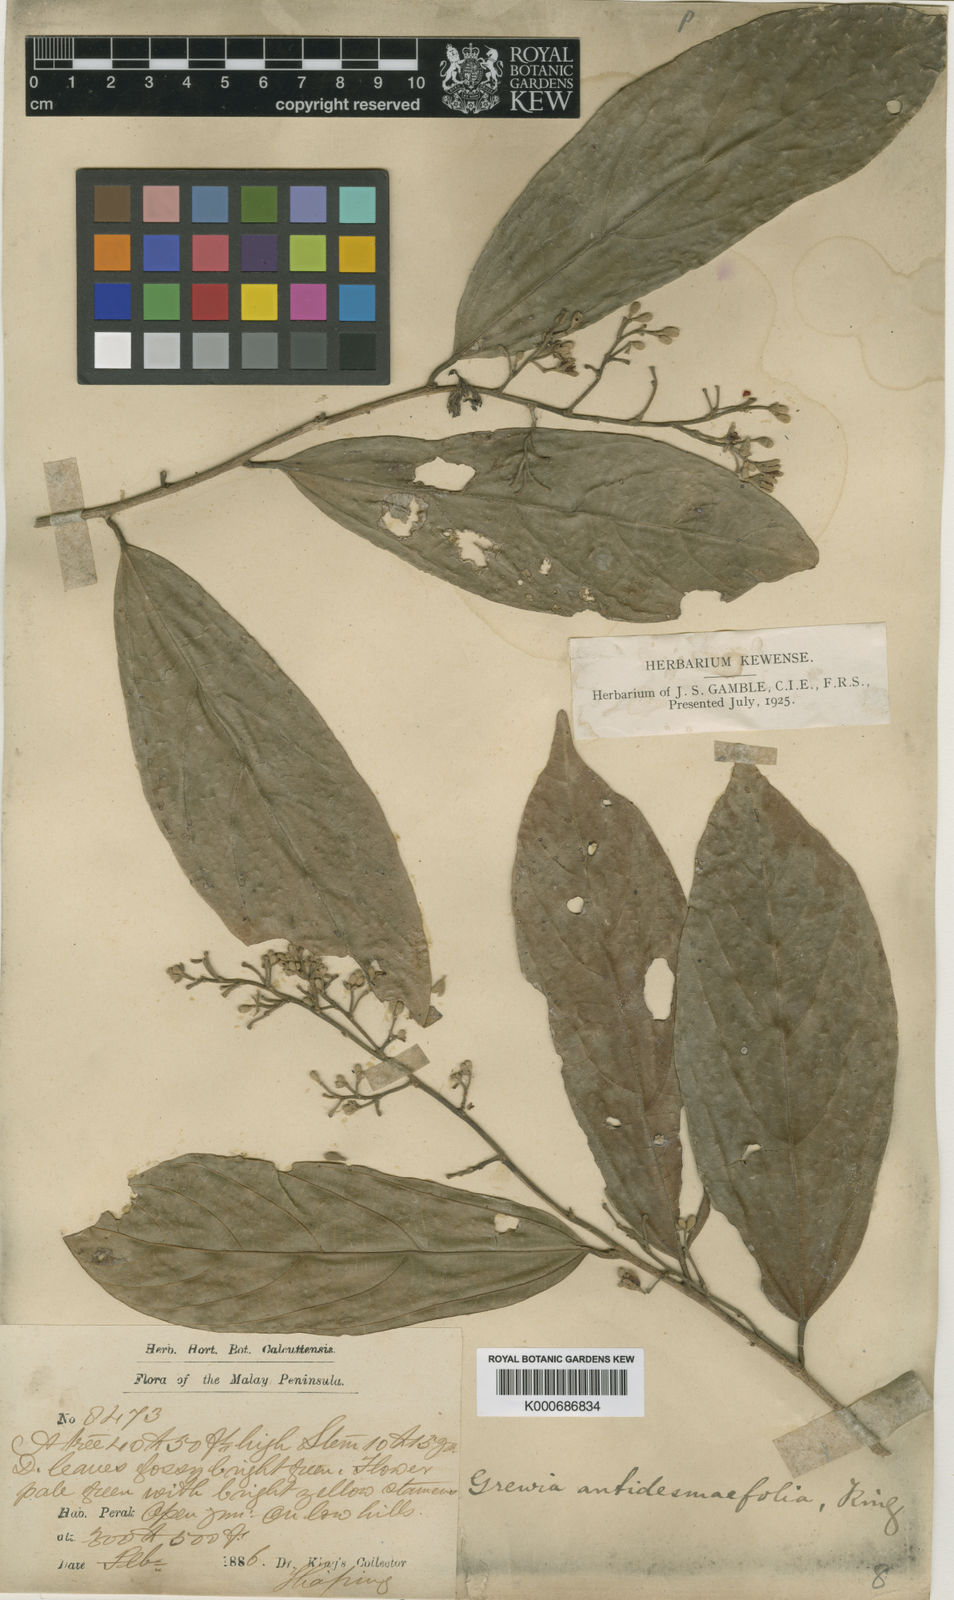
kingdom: Plantae
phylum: Tracheophyta
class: Magnoliopsida
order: Malvales
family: Malvaceae
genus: Microcos
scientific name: Microcos antidesmifolia
